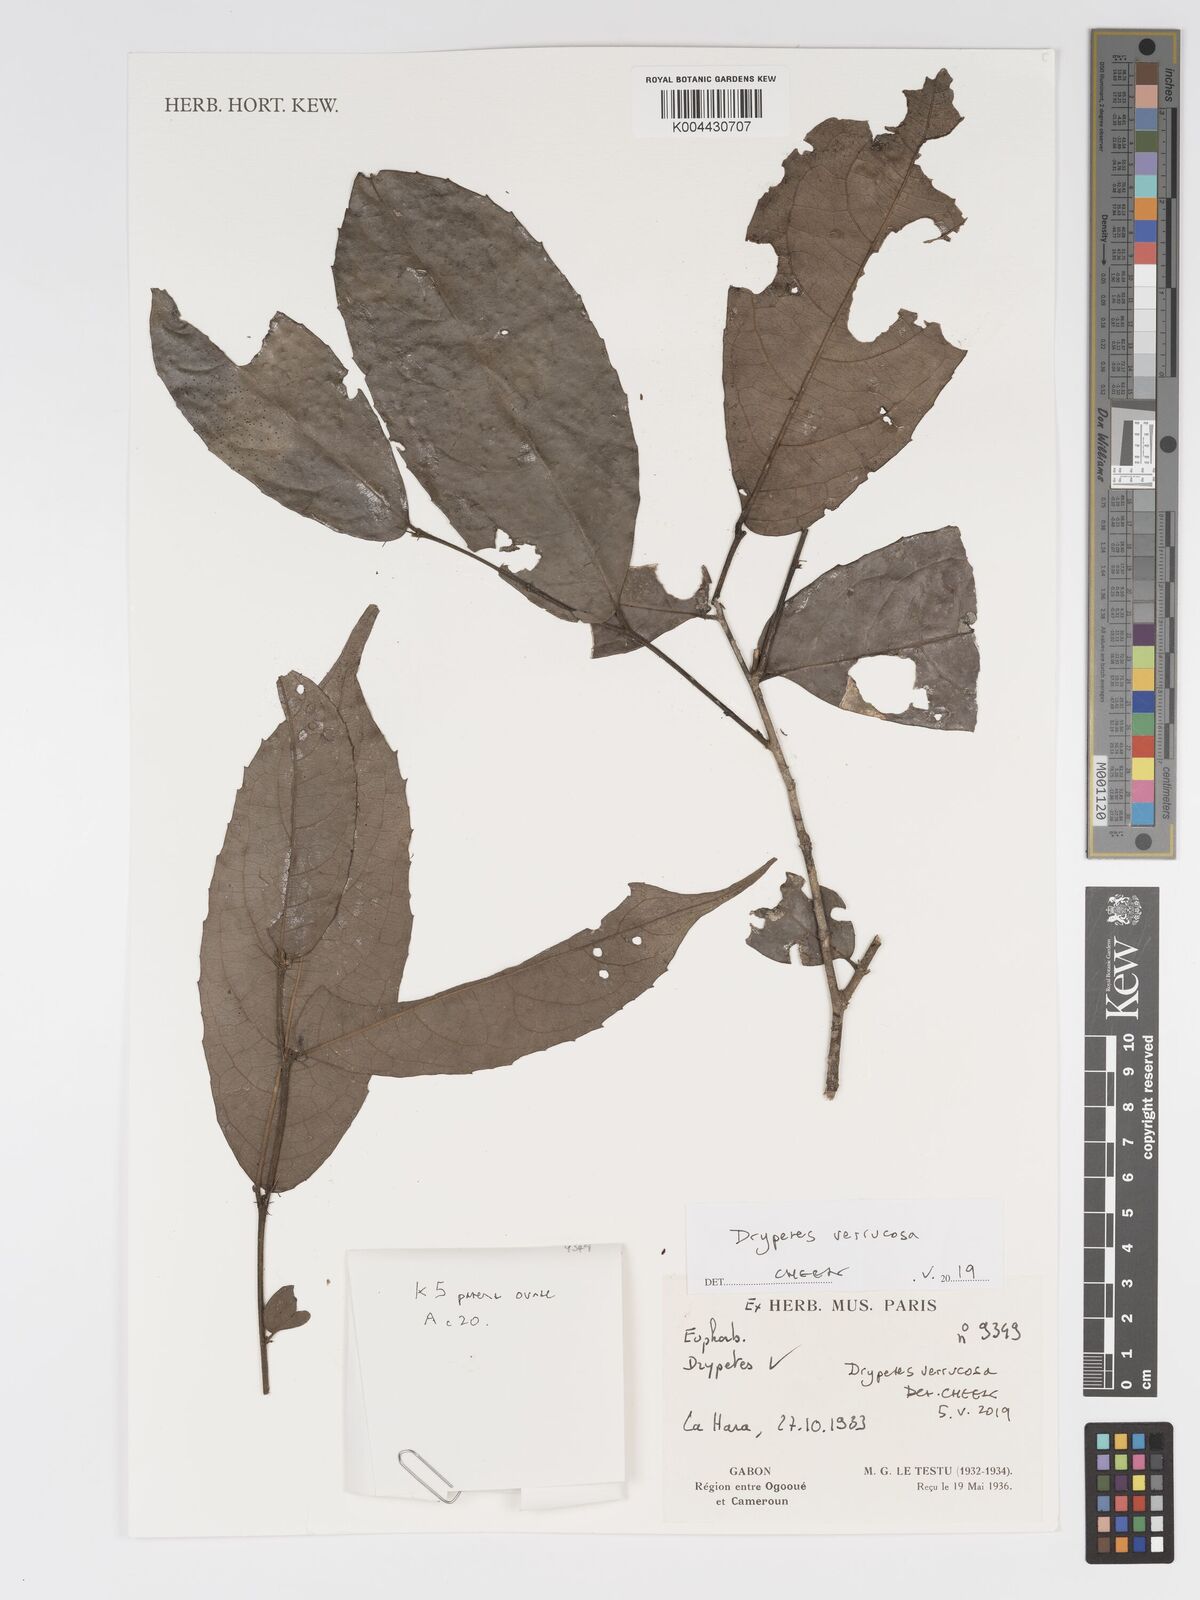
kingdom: Plantae
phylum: Tracheophyta
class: Magnoliopsida
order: Malpighiales
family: Putranjivaceae
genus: Drypetes
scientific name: Drypetes verrucosa
